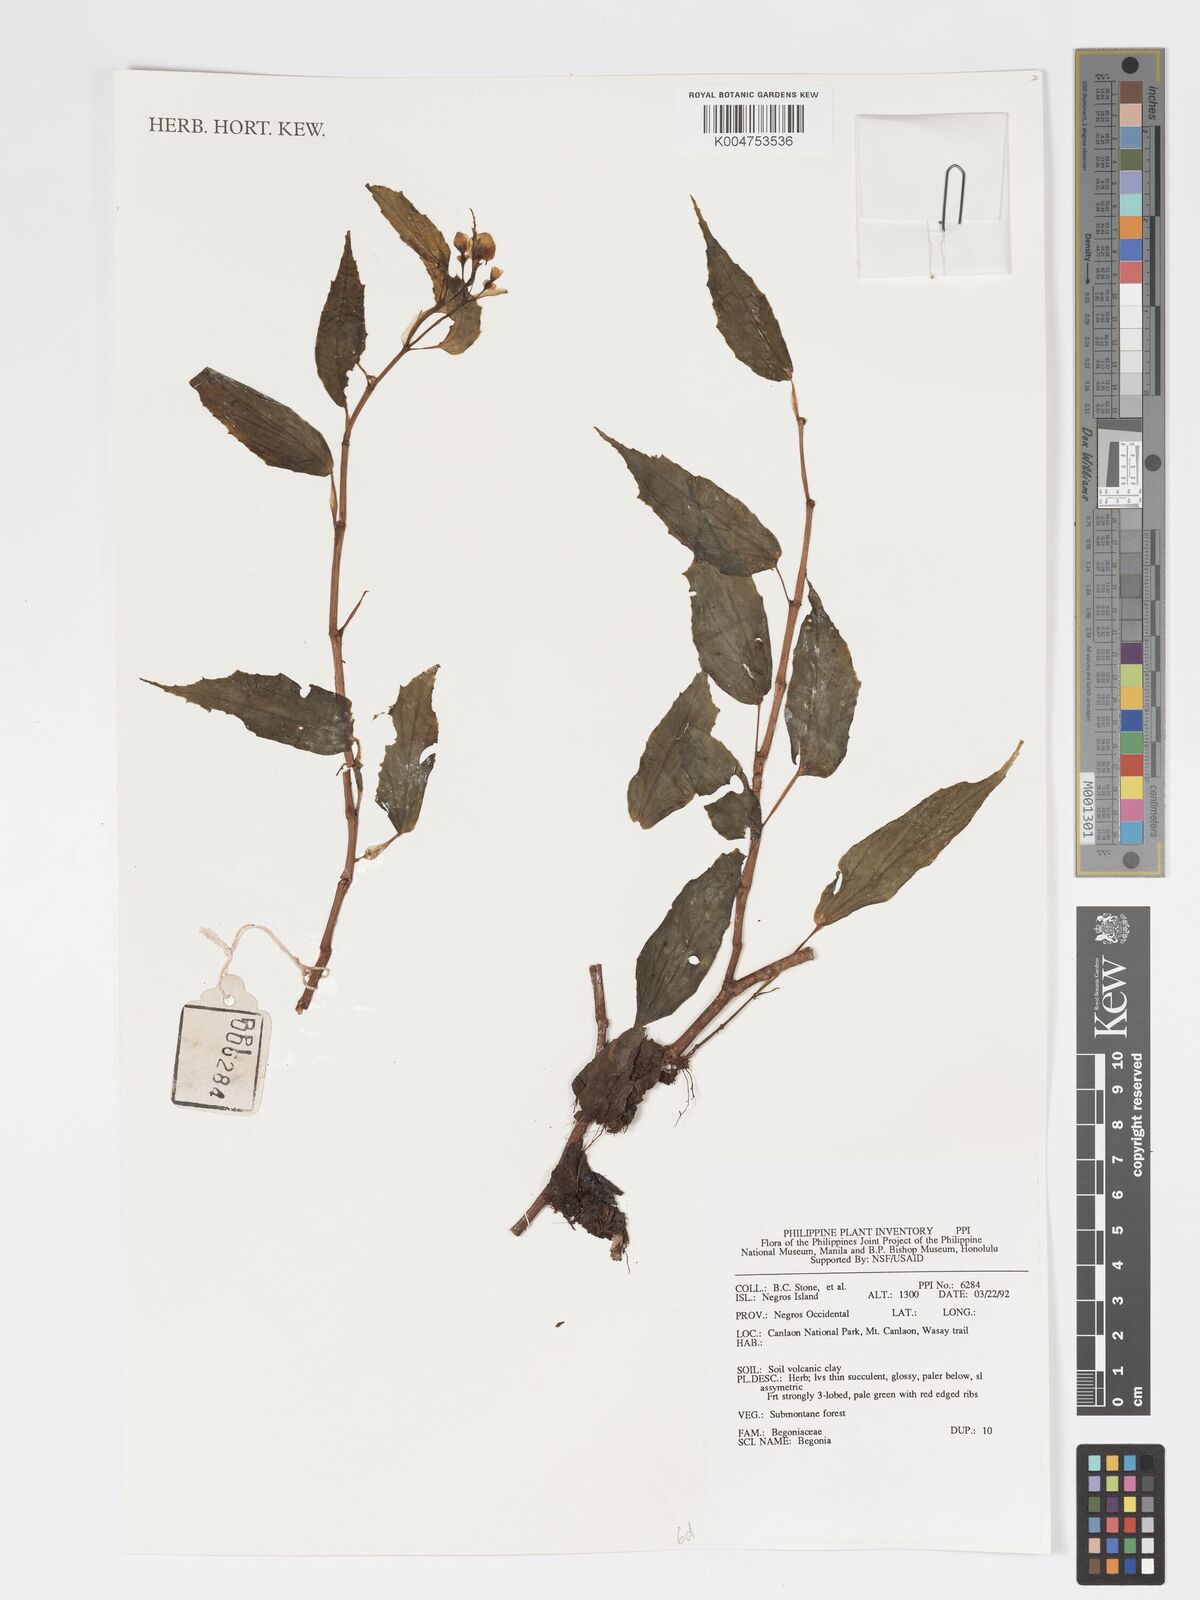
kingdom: Plantae
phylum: Tracheophyta
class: Magnoliopsida
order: Cucurbitales
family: Begoniaceae
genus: Begonia
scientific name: Begonia
